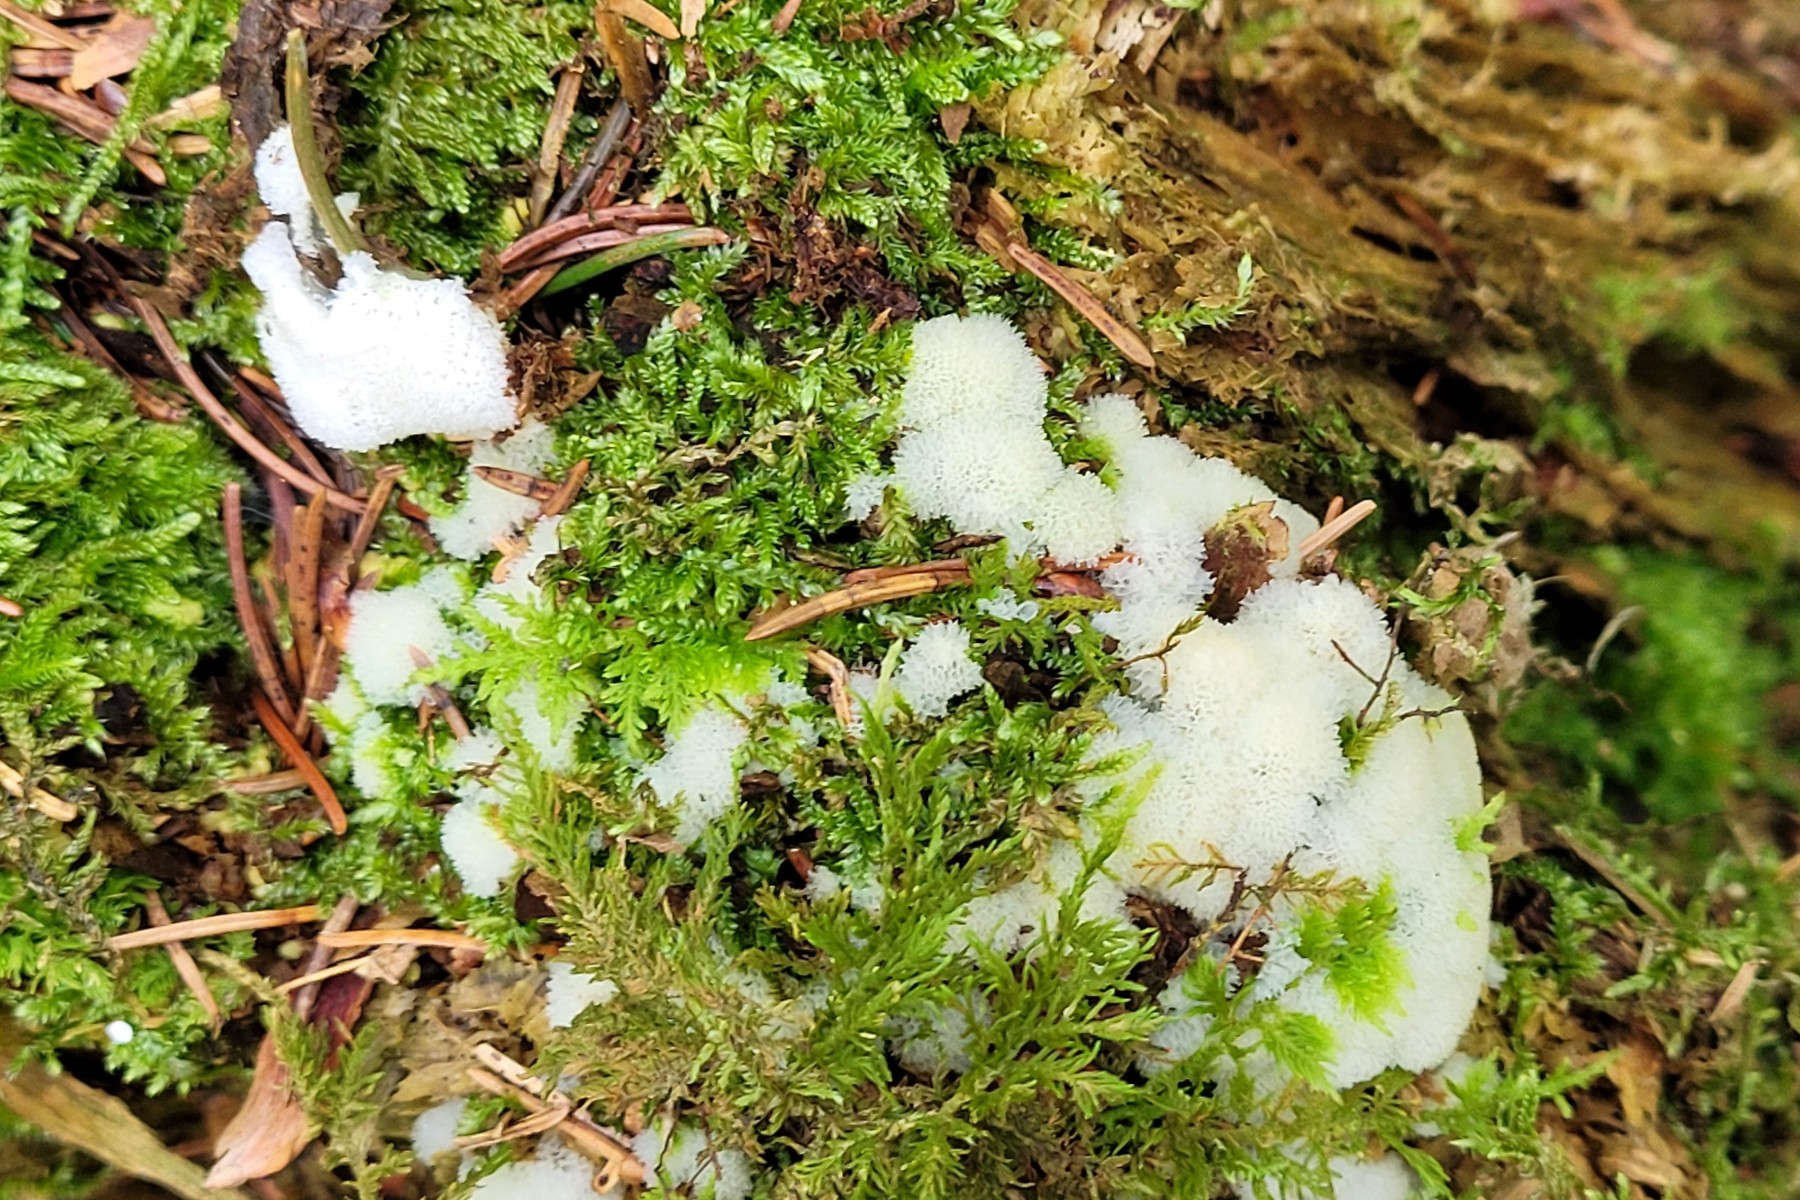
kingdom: Protozoa
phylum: Mycetozoa
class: Protosteliomycetes
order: Ceratiomyxales
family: Ceratiomyxaceae
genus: Ceratiomyxa
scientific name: Ceratiomyxa fruticulosa
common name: Honeycomb coral slime mold
